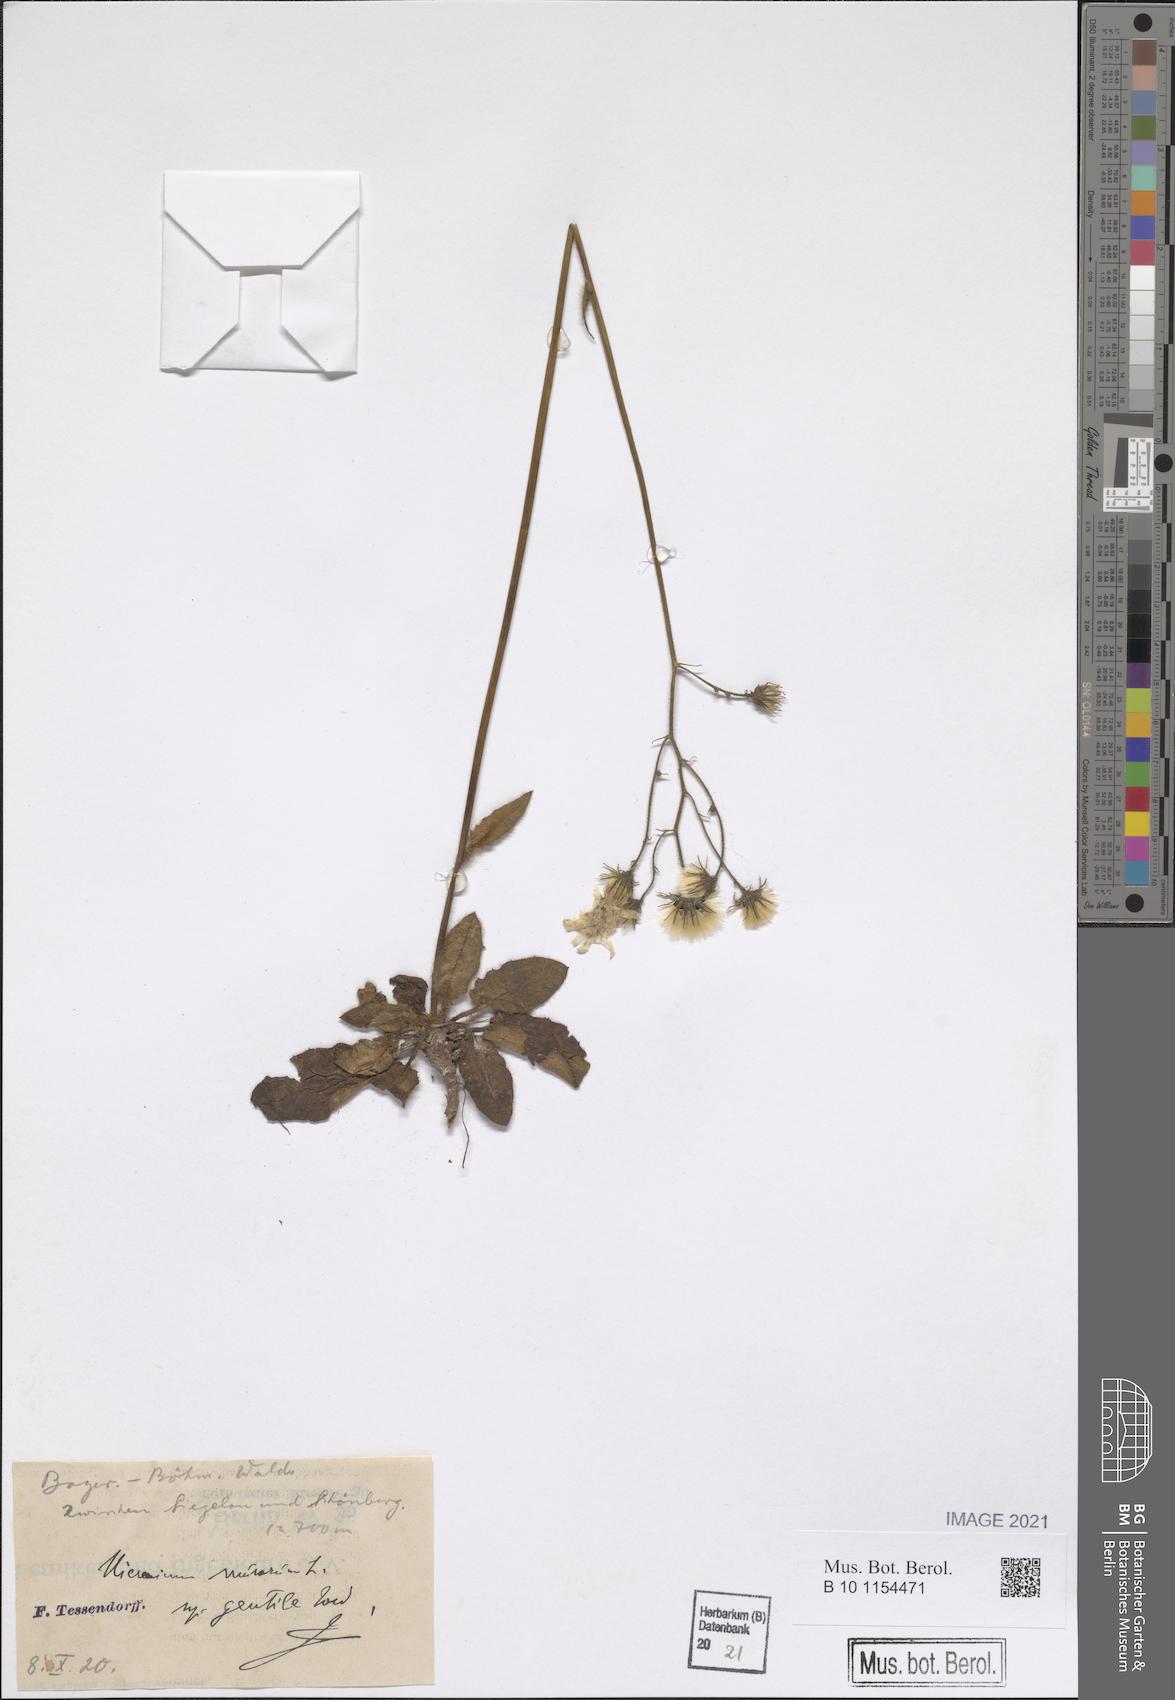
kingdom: Plantae
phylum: Tracheophyta
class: Magnoliopsida
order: Asterales
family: Asteraceae
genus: Hieracium
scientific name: Hieracium murorum
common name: Wall hawkweed
